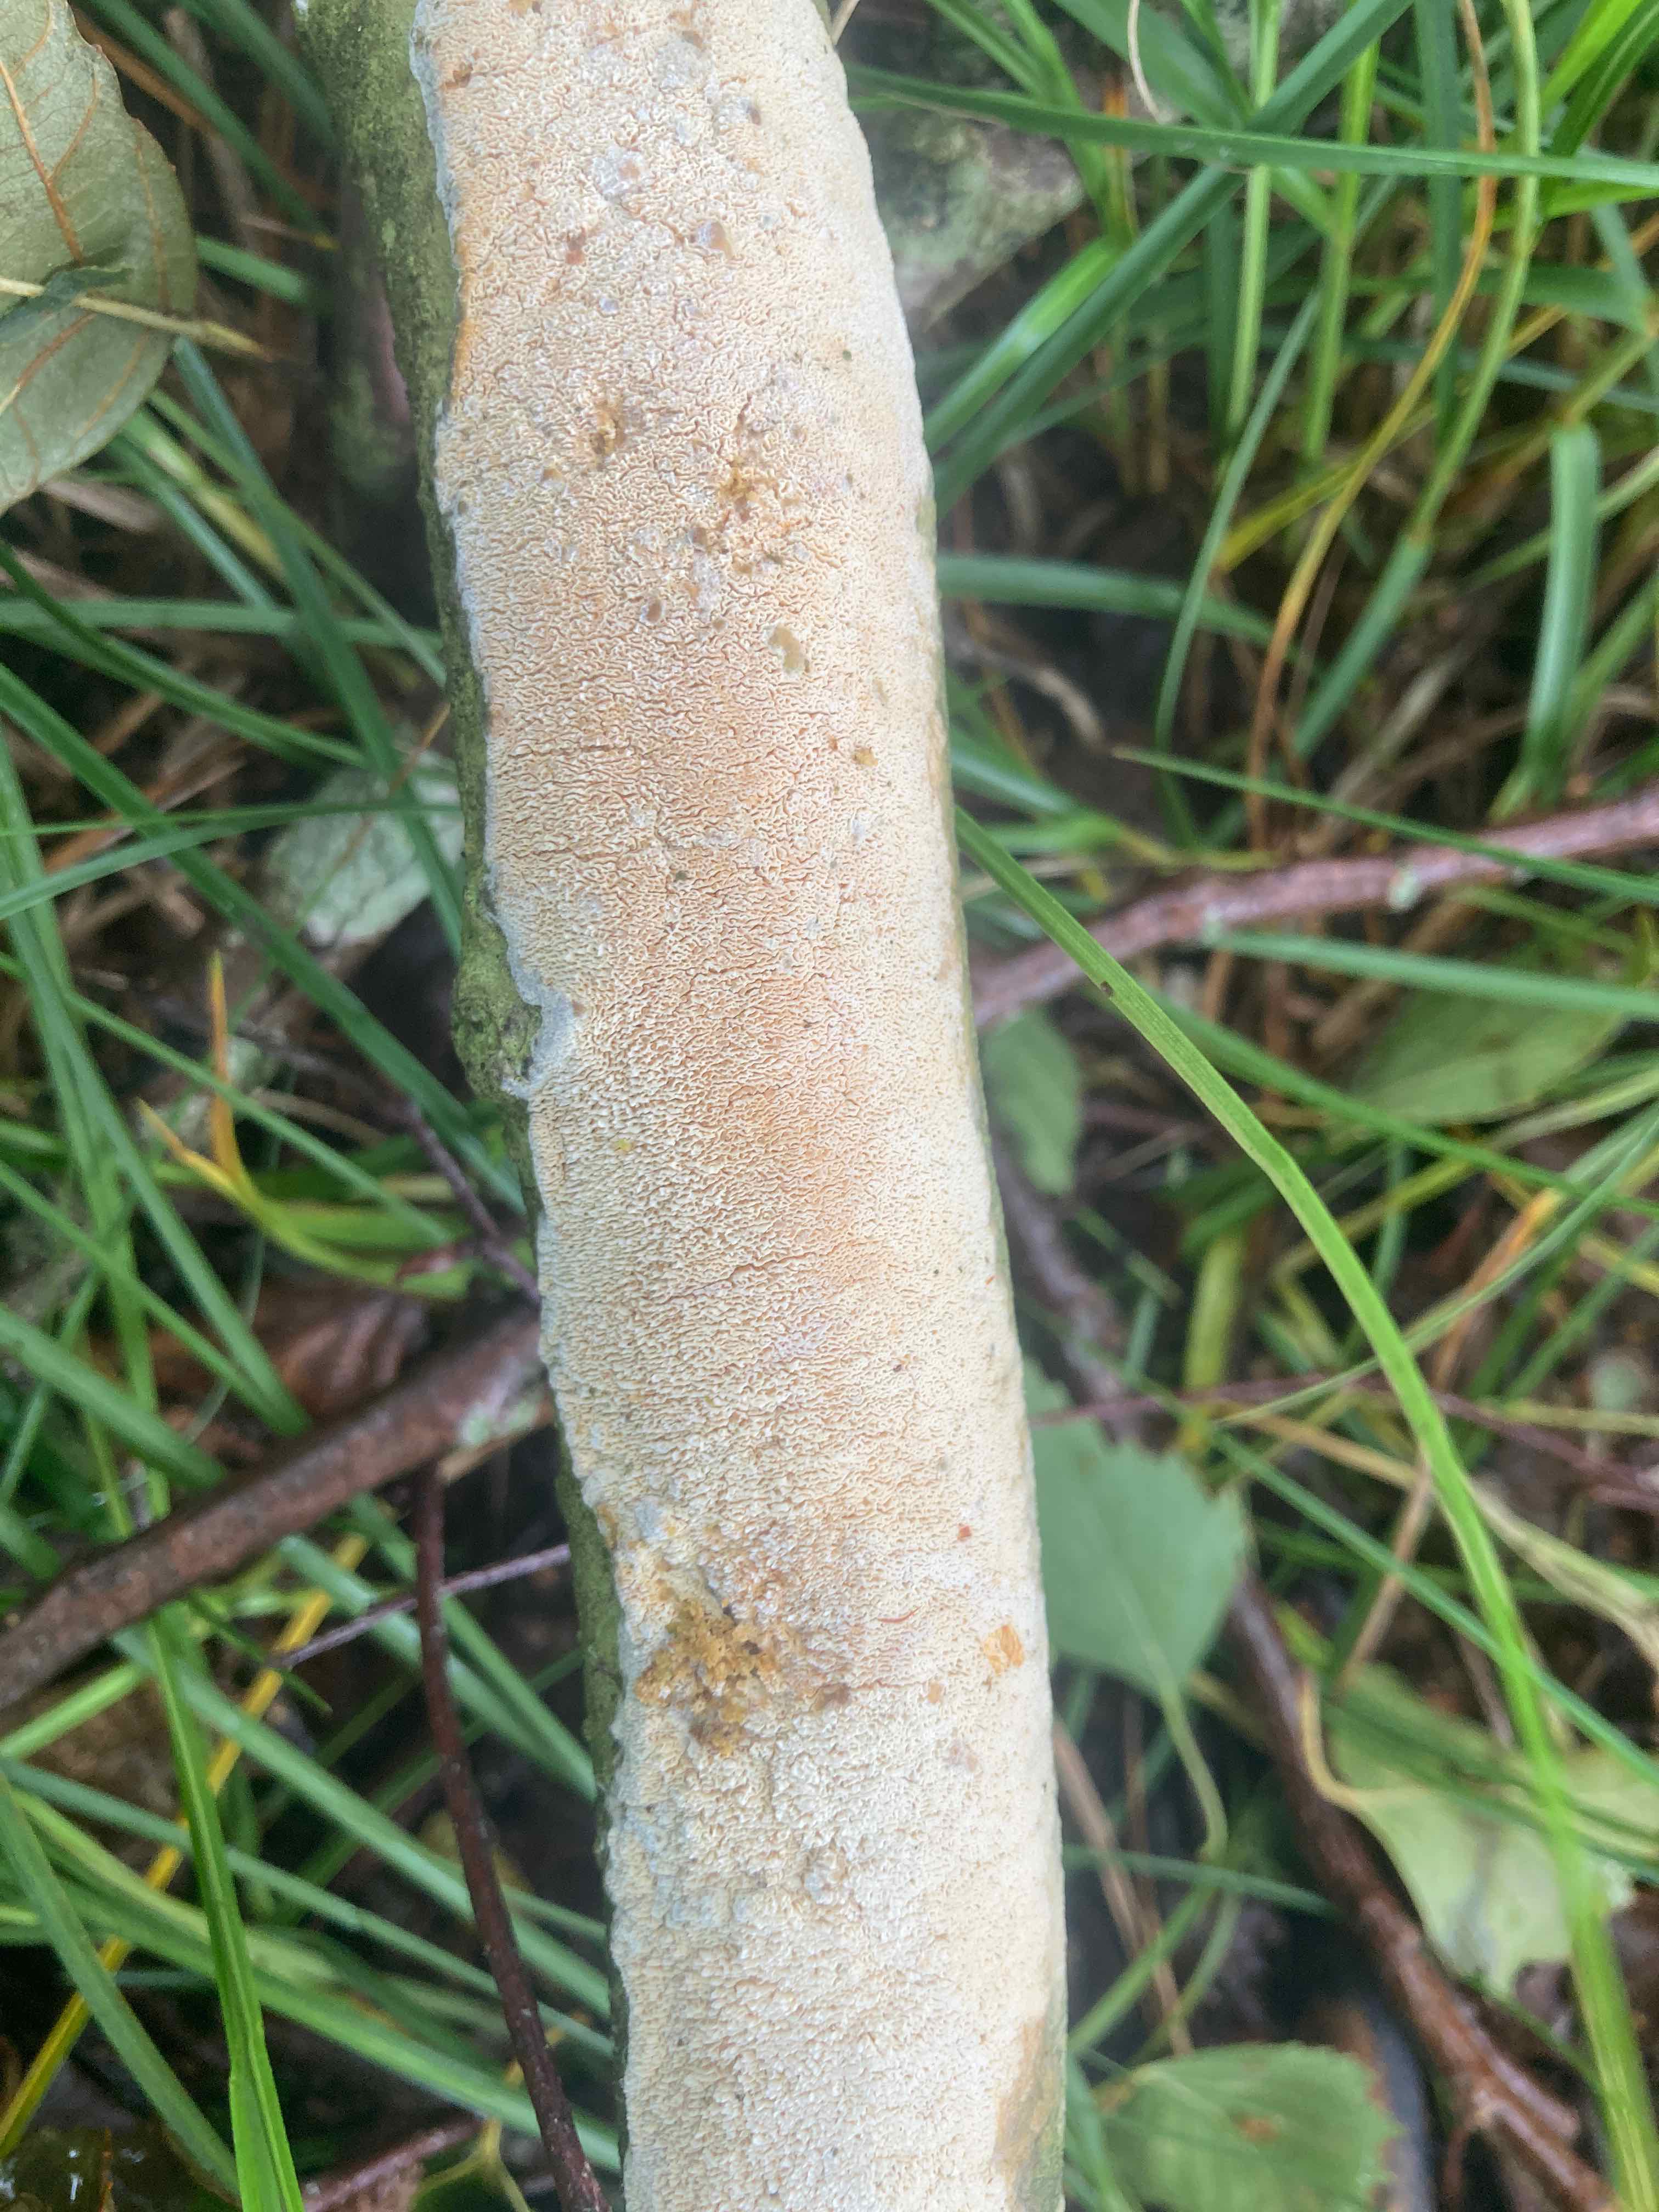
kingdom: Fungi
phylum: Basidiomycota
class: Agaricomycetes
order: Hymenochaetales
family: Schizoporaceae
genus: Xylodon
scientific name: Xylodon subtropicus
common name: labyrint-tandsvamp
